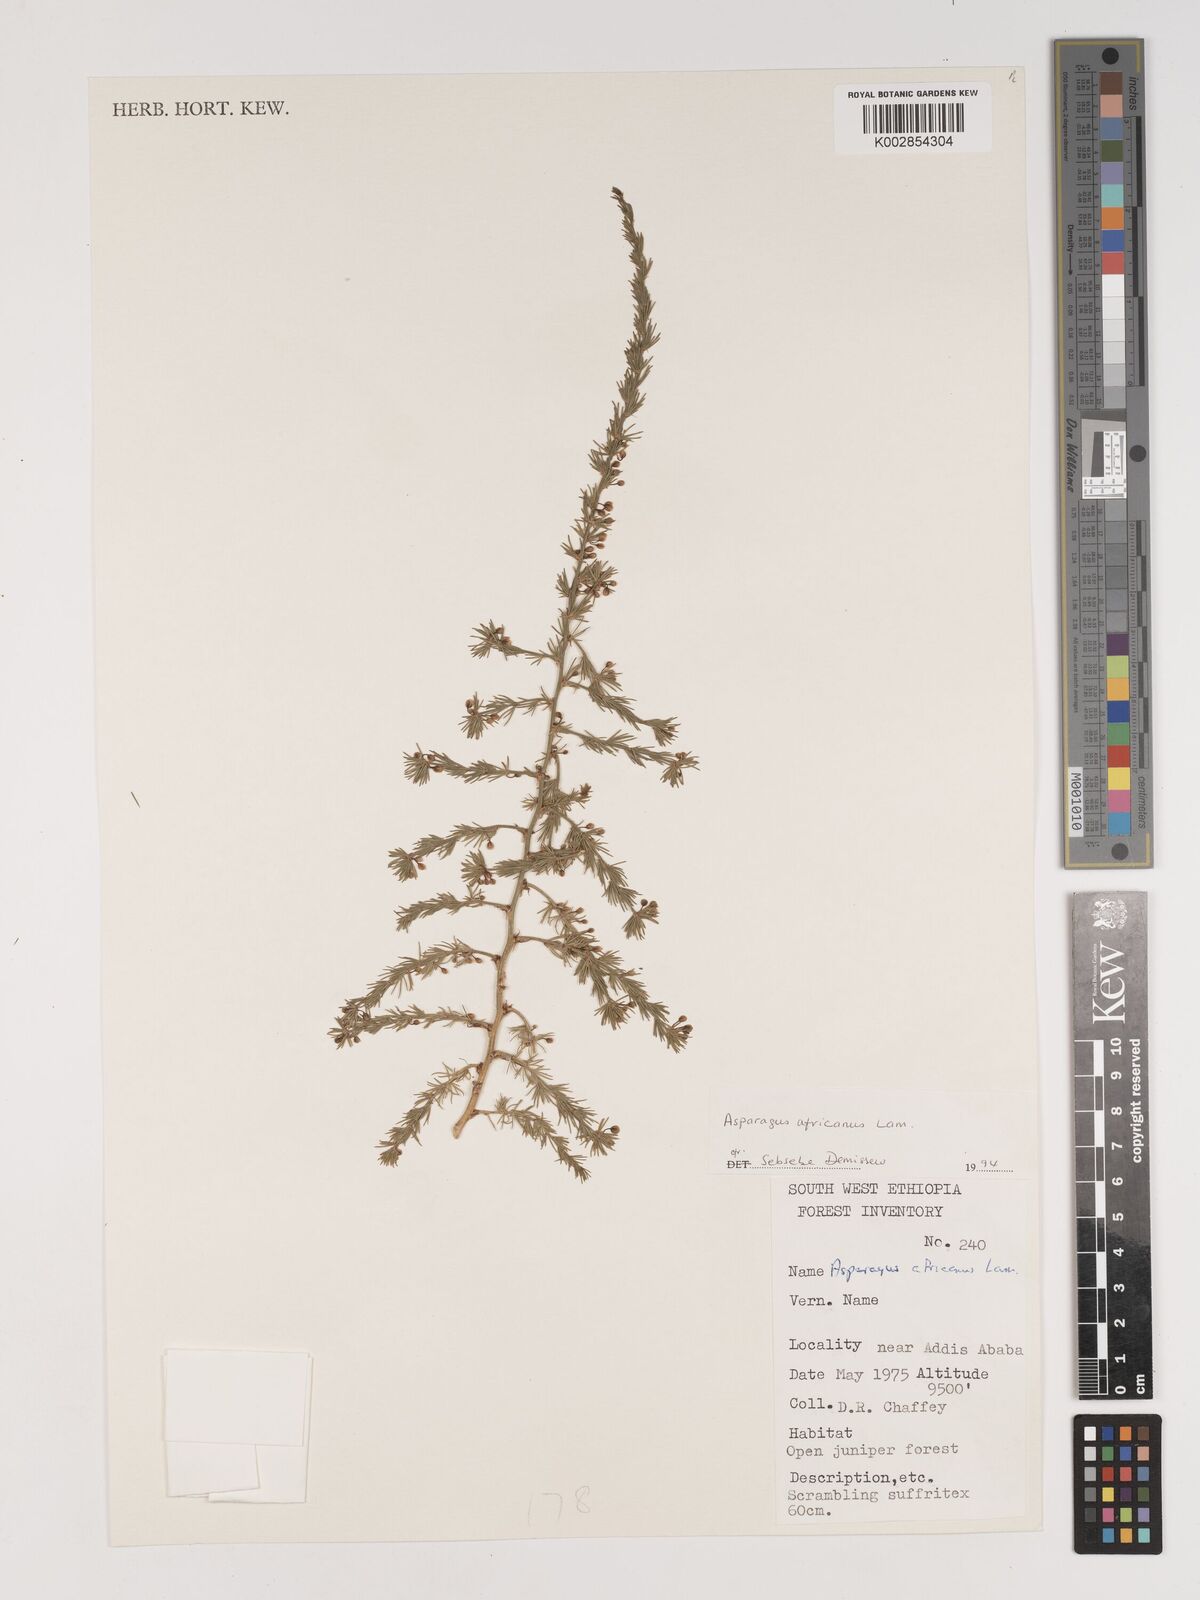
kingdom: Plantae
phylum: Tracheophyta
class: Liliopsida
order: Asparagales
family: Asparagaceae
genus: Asparagus
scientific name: Asparagus africanus
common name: Asparagus-fern
